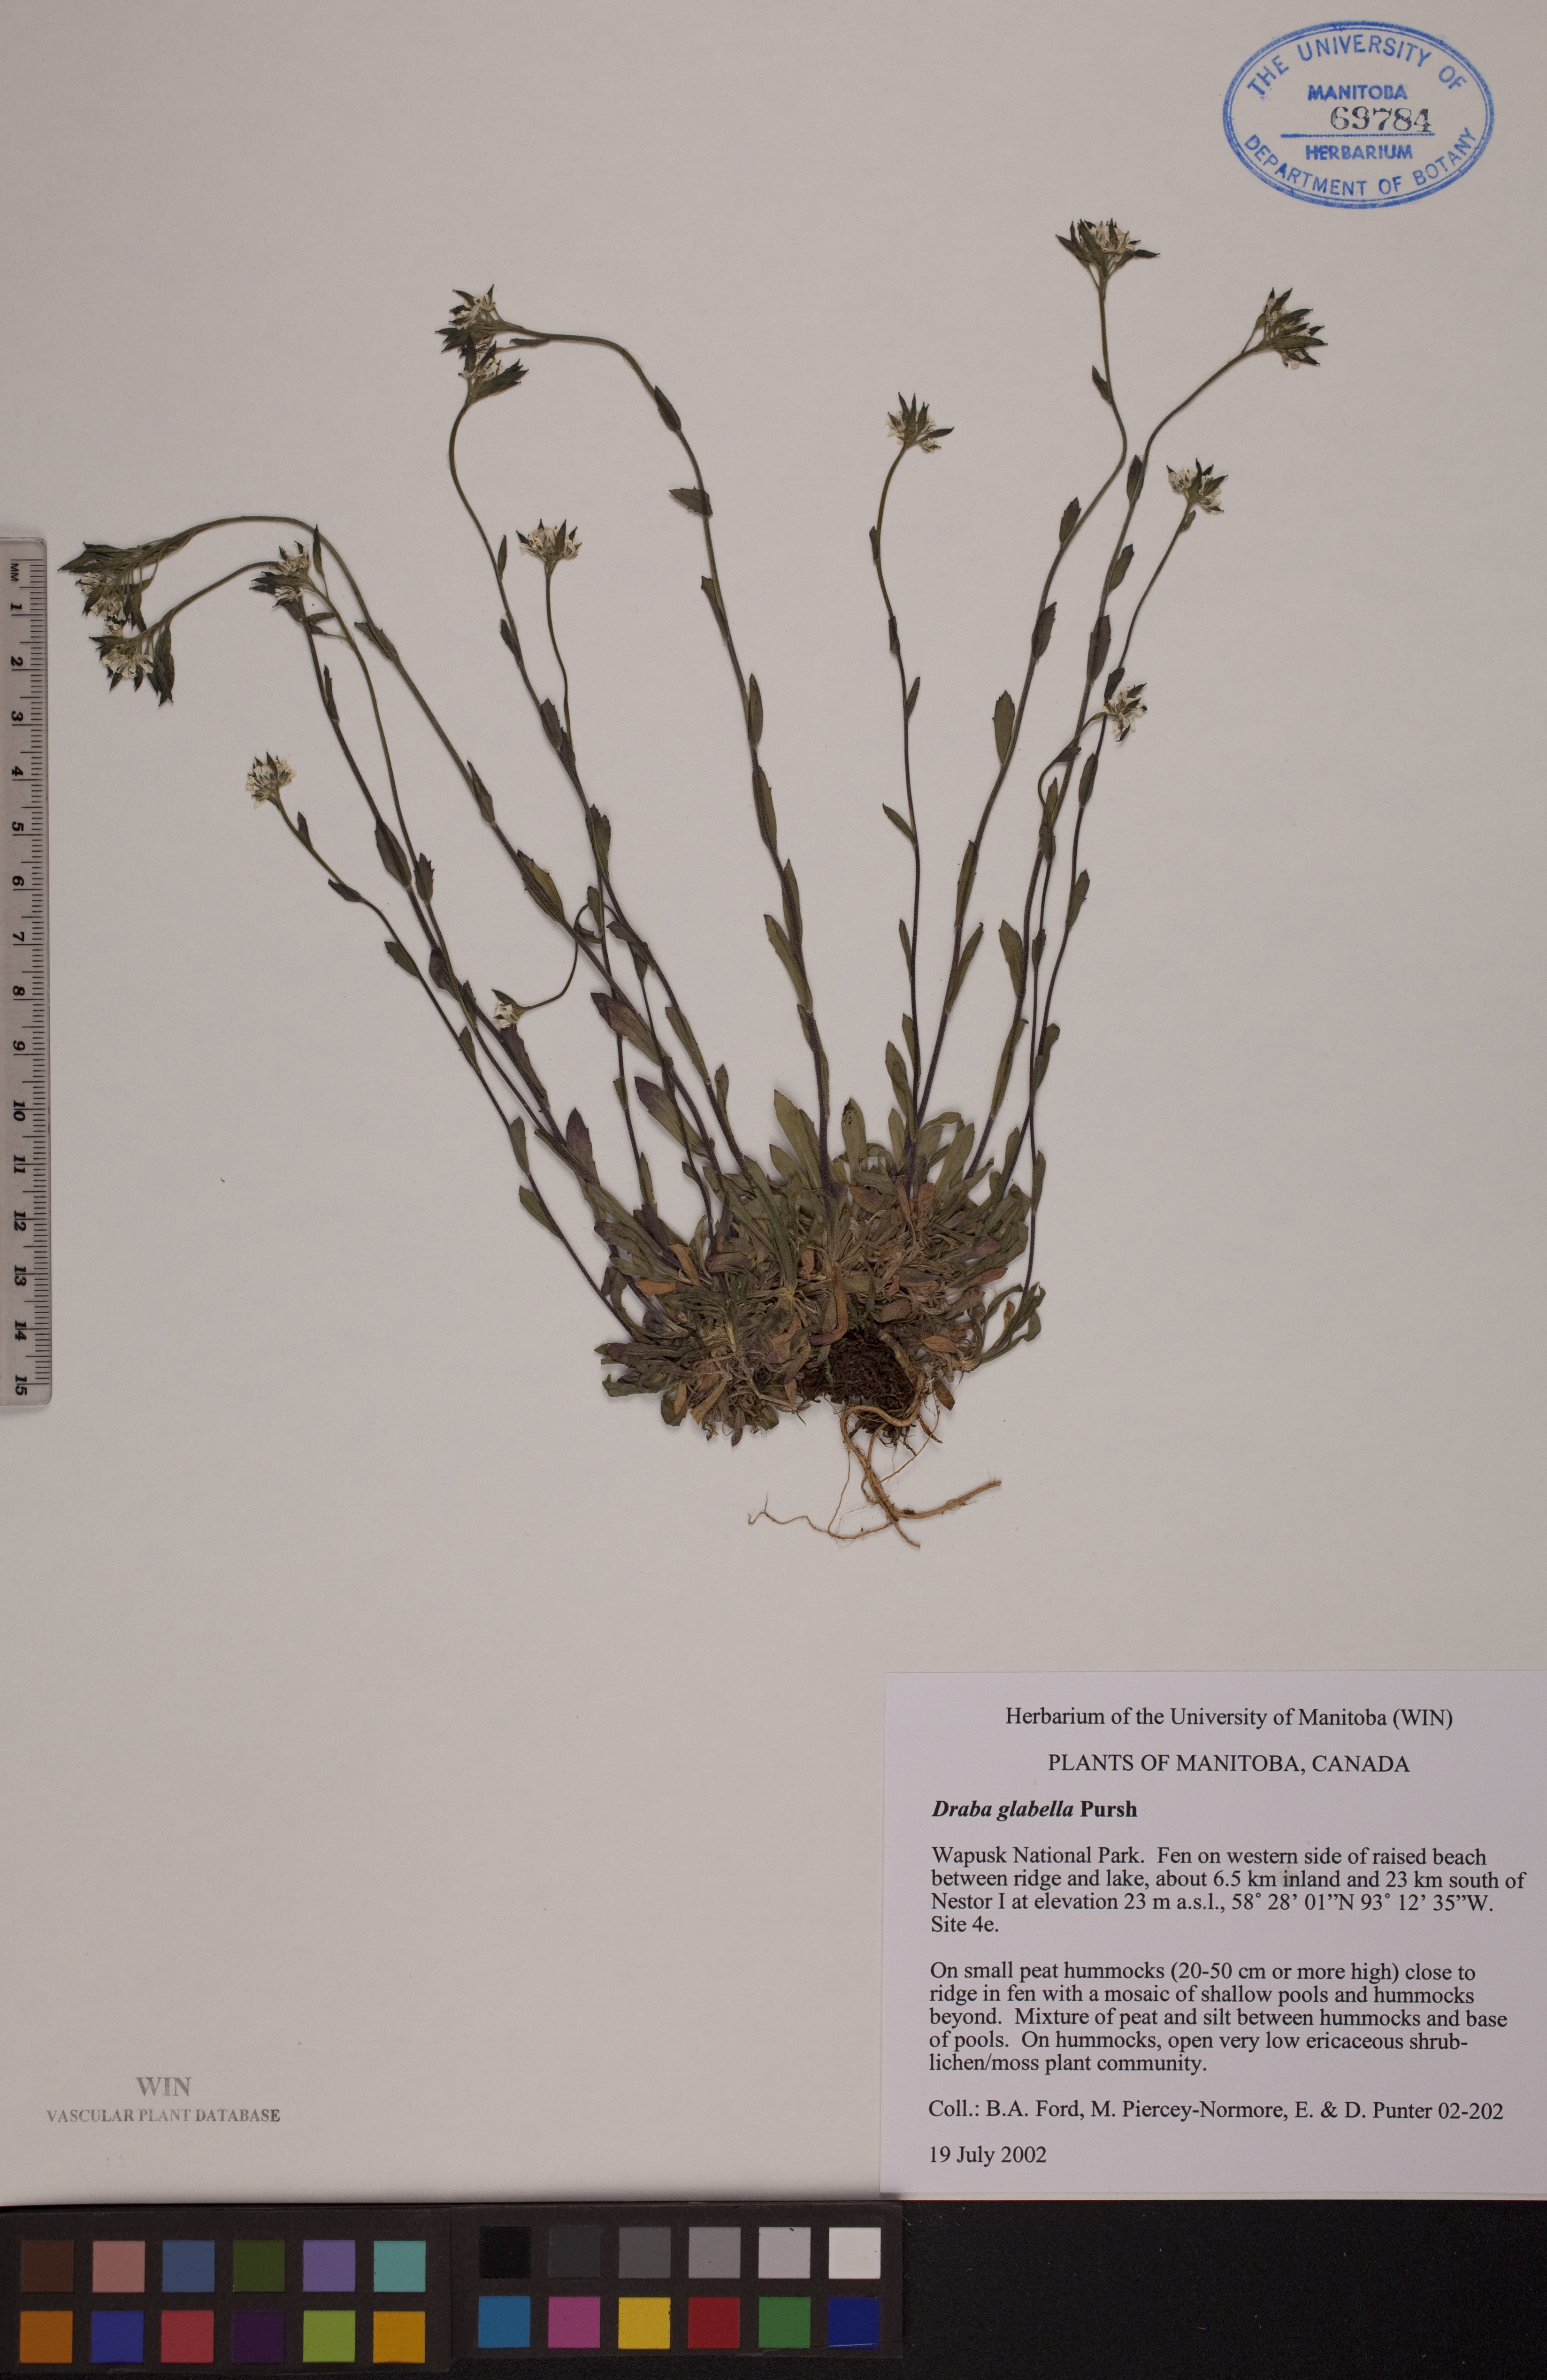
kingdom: Plantae
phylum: Tracheophyta
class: Magnoliopsida
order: Brassicales
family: Brassicaceae
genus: Draba
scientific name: Draba glabella
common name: Glaucous draba
